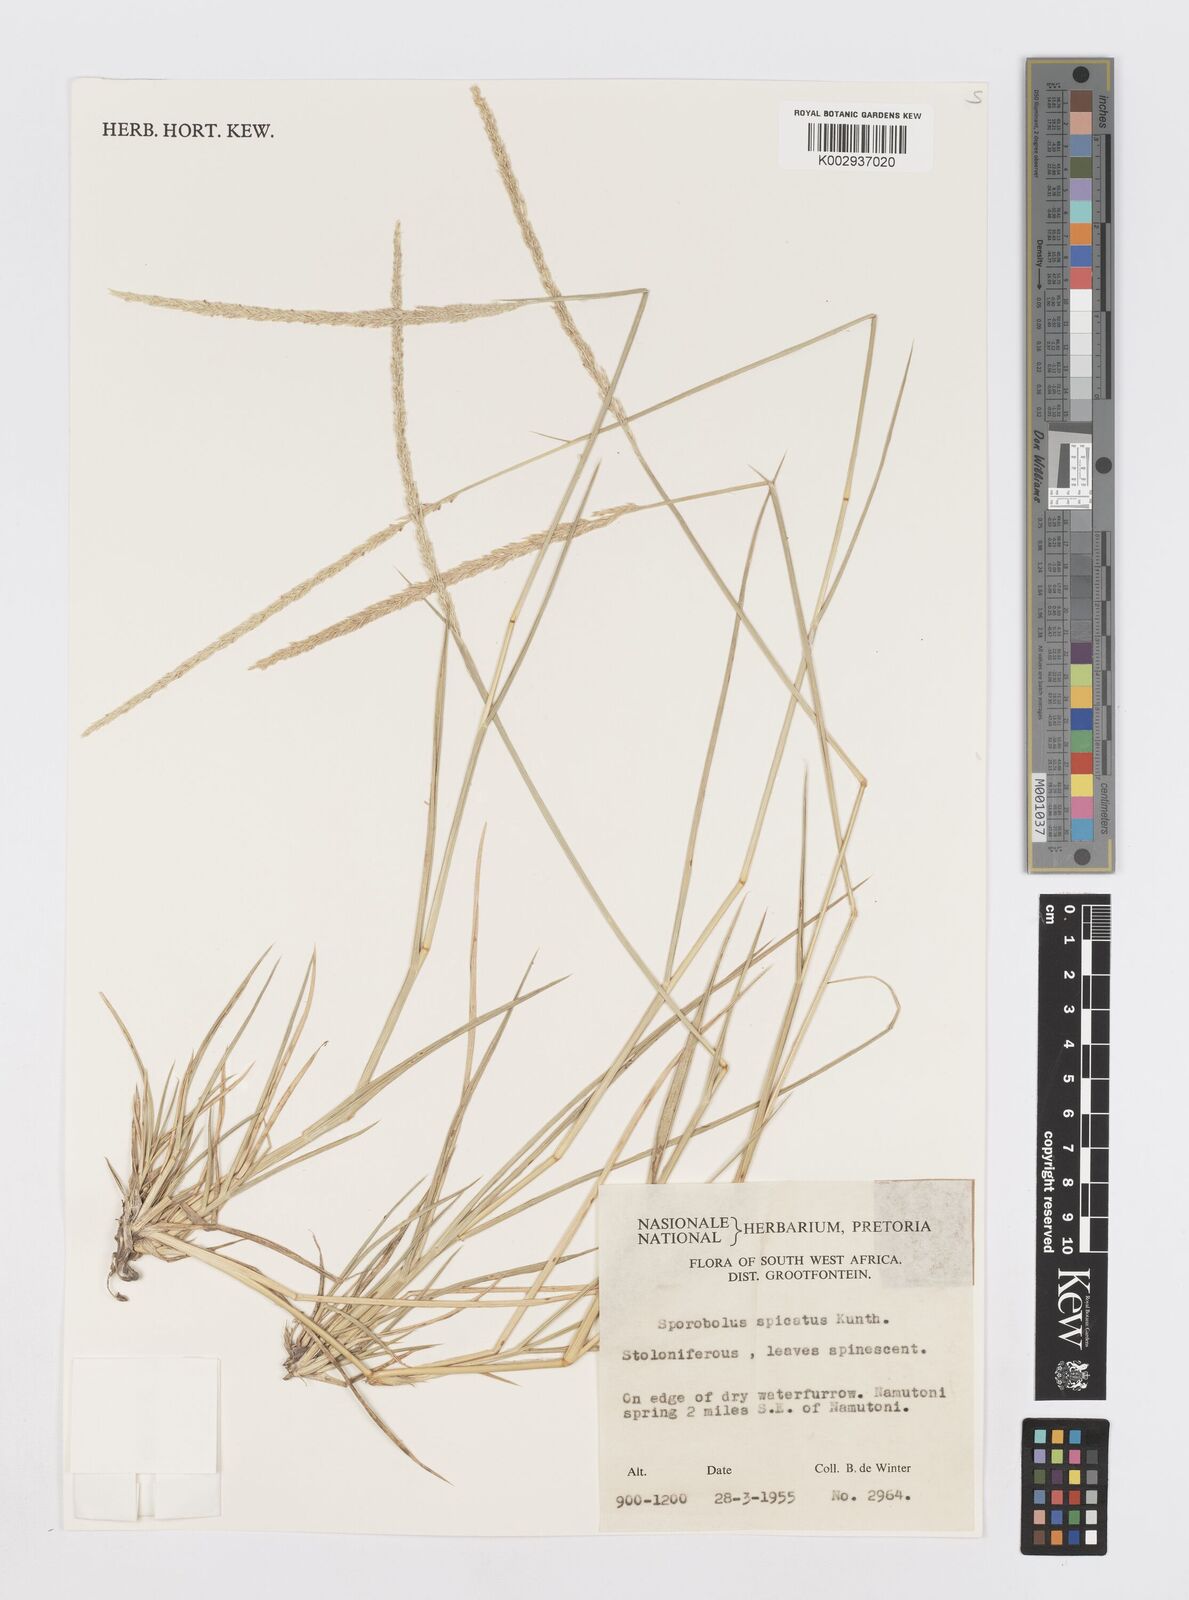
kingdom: Plantae
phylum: Tracheophyta
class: Liliopsida
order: Poales
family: Poaceae
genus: Sporobolus
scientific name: Sporobolus spicatus
